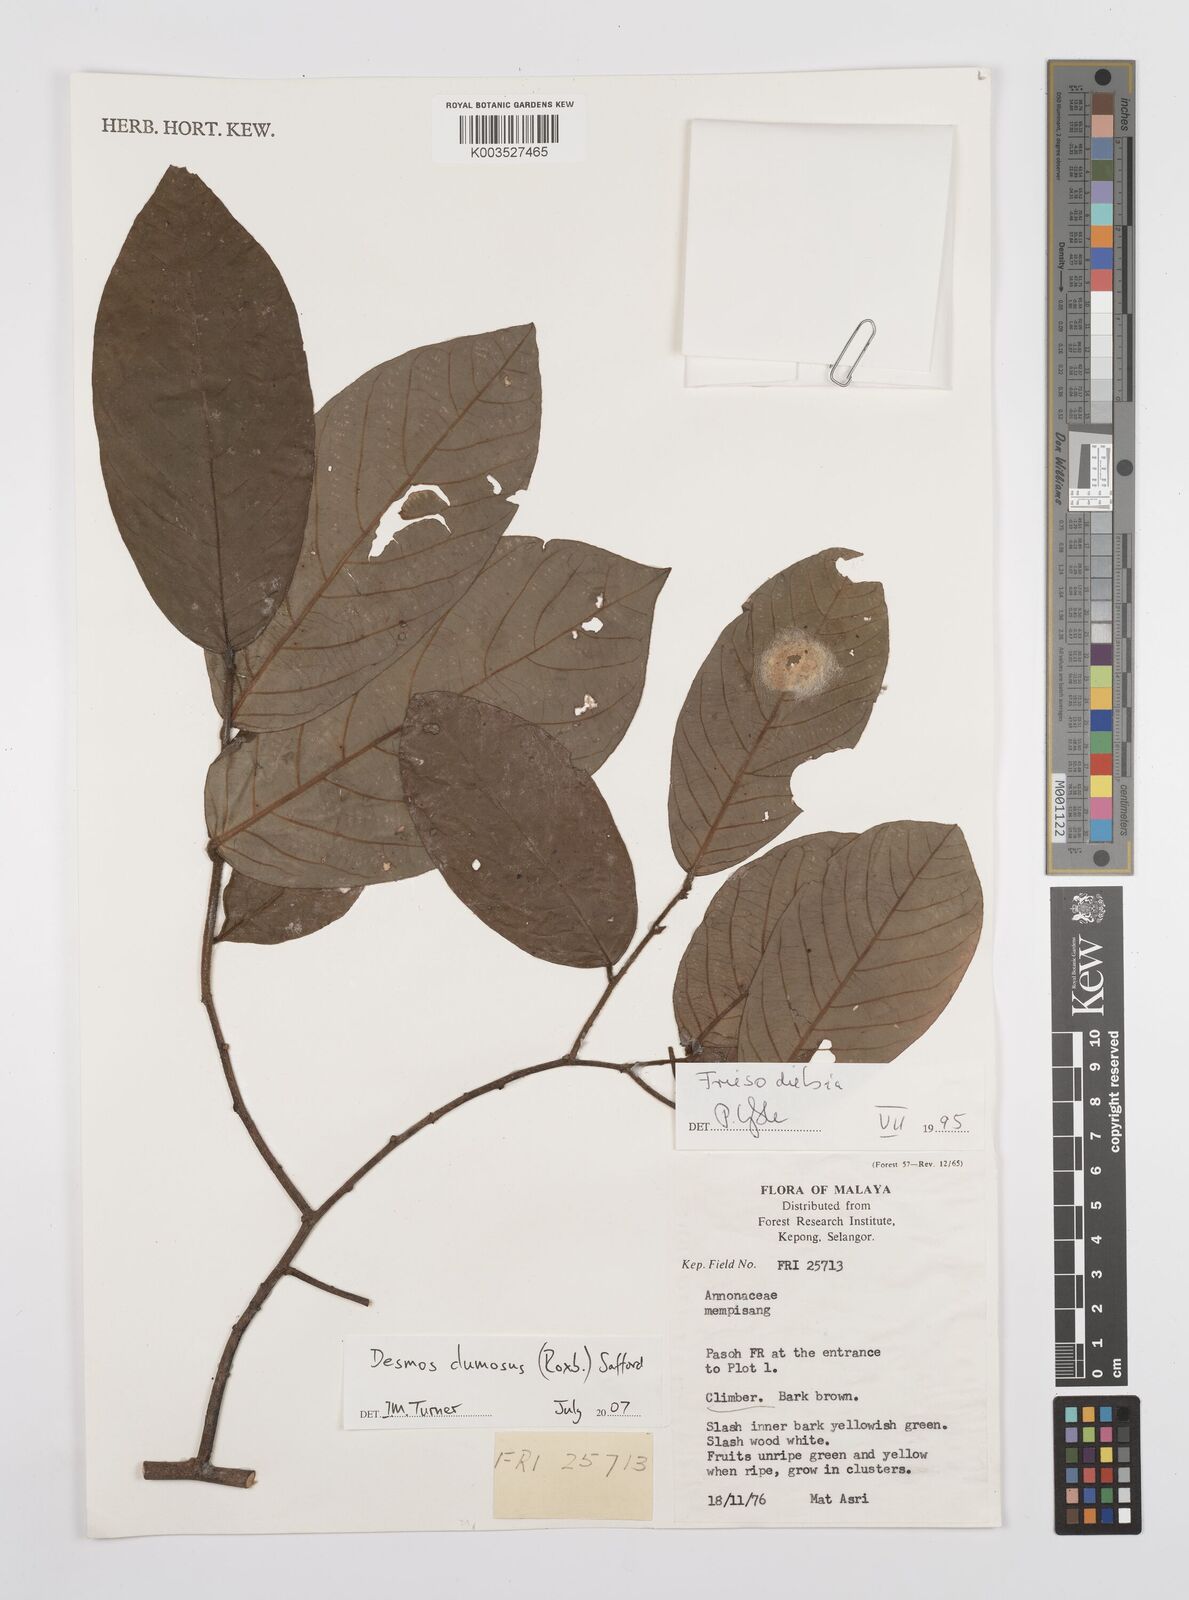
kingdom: Plantae
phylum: Tracheophyta
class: Magnoliopsida
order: Magnoliales
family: Annonaceae
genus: Desmos
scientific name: Desmos dumosus
